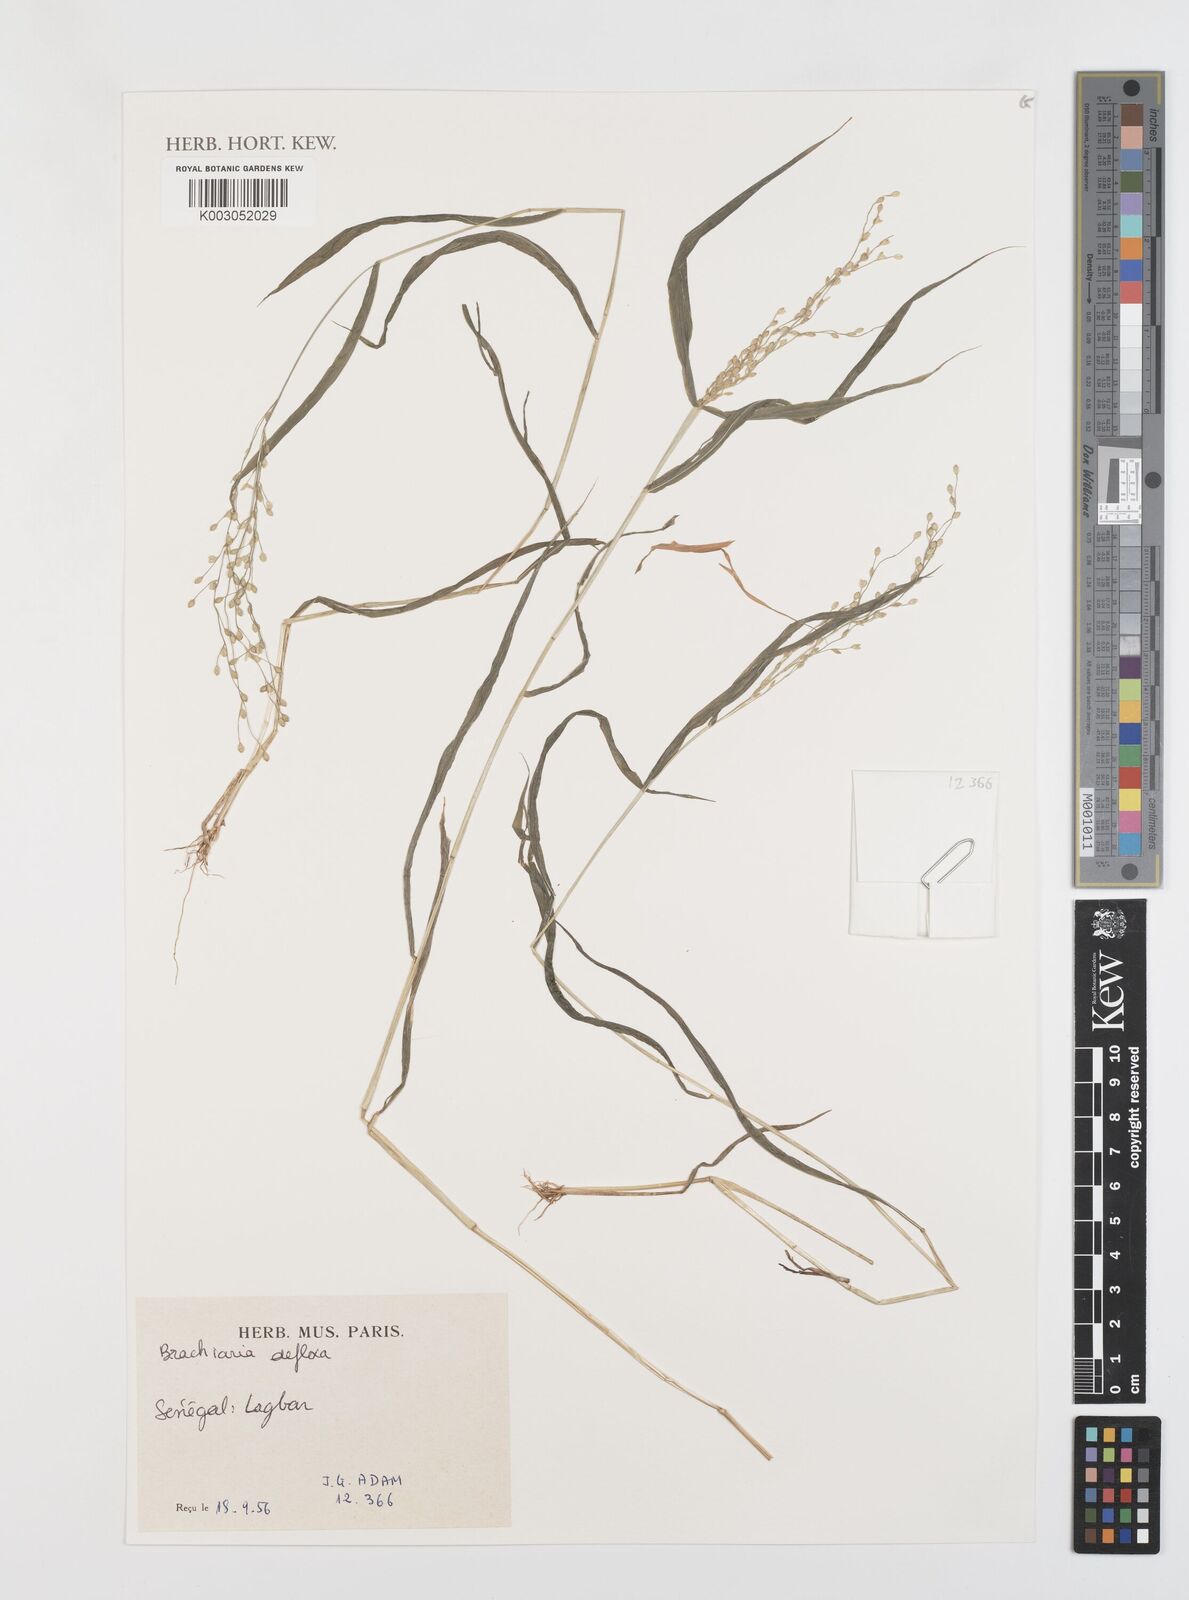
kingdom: Plantae
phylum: Tracheophyta
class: Liliopsida
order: Poales
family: Poaceae
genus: Urochloa
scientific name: Urochloa deflexa
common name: Guinea millet
